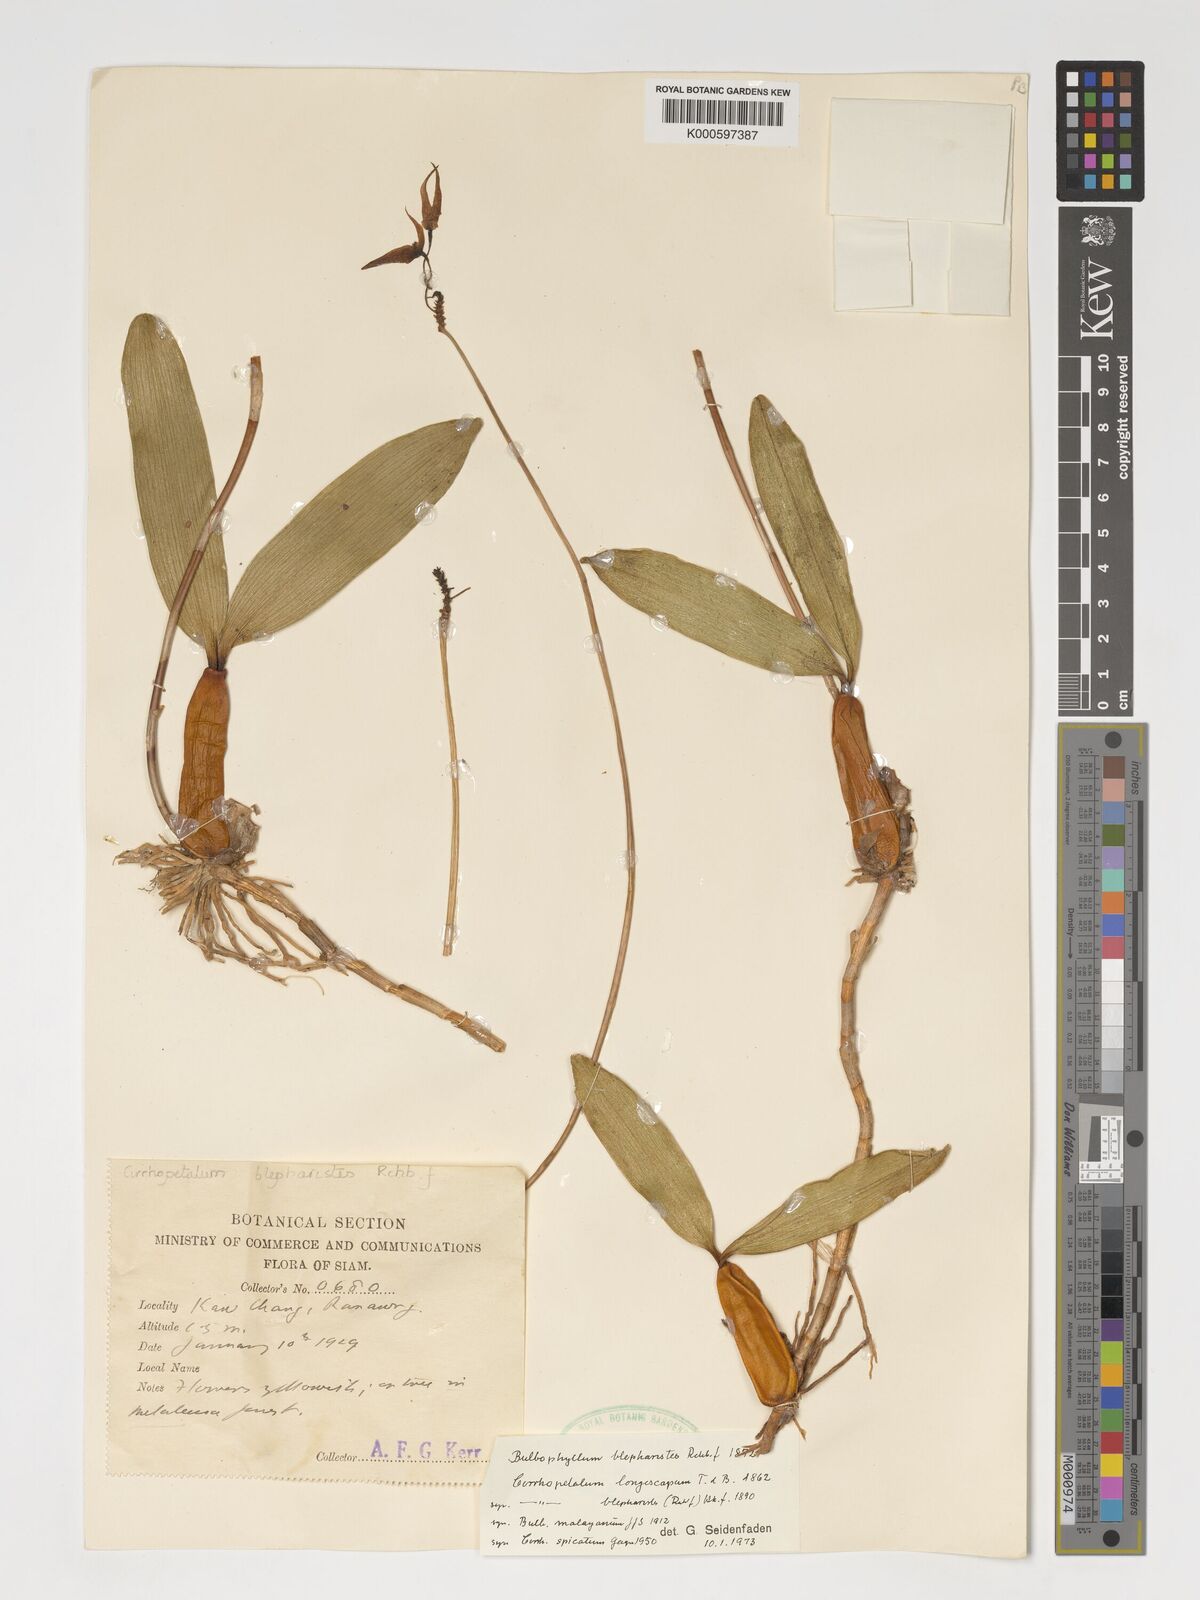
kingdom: Plantae
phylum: Tracheophyta
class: Liliopsida
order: Asparagales
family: Orchidaceae
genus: Bulbophyllum
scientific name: Bulbophyllum blepharistes
